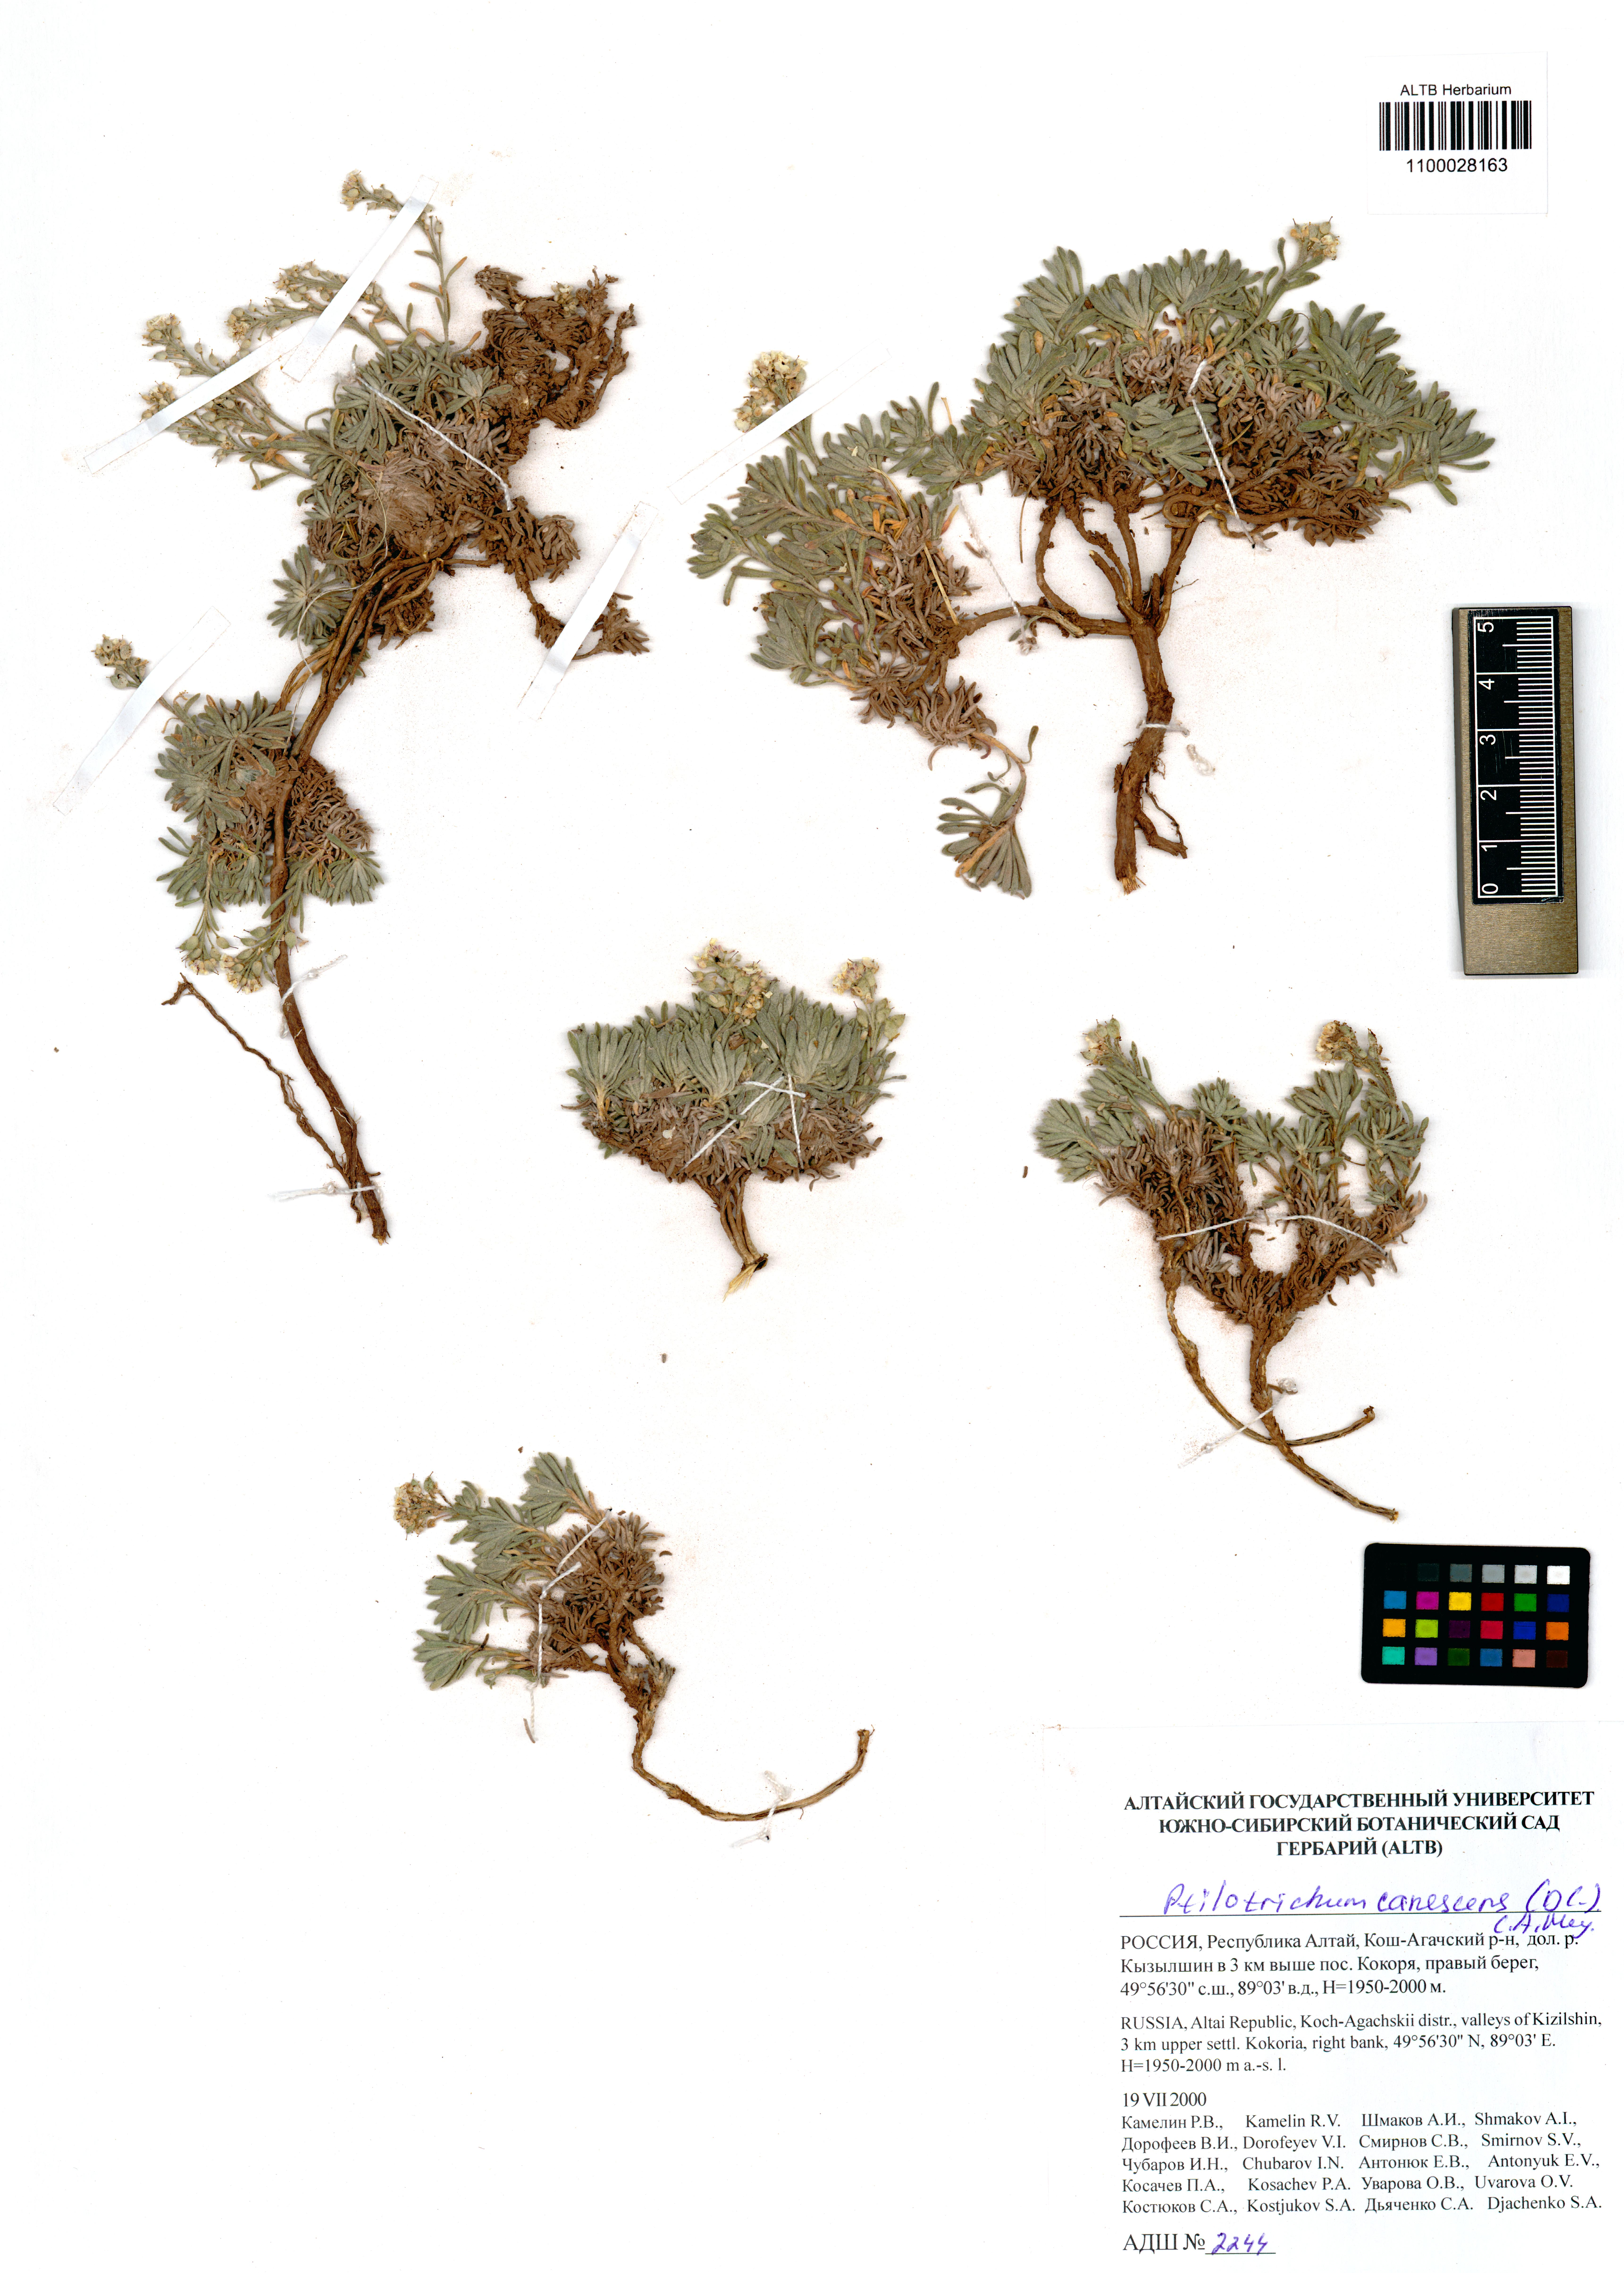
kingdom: Plantae
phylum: Tracheophyta
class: Magnoliopsida
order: Brassicales
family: Brassicaceae
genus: Stevenia
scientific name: Stevenia canescens
